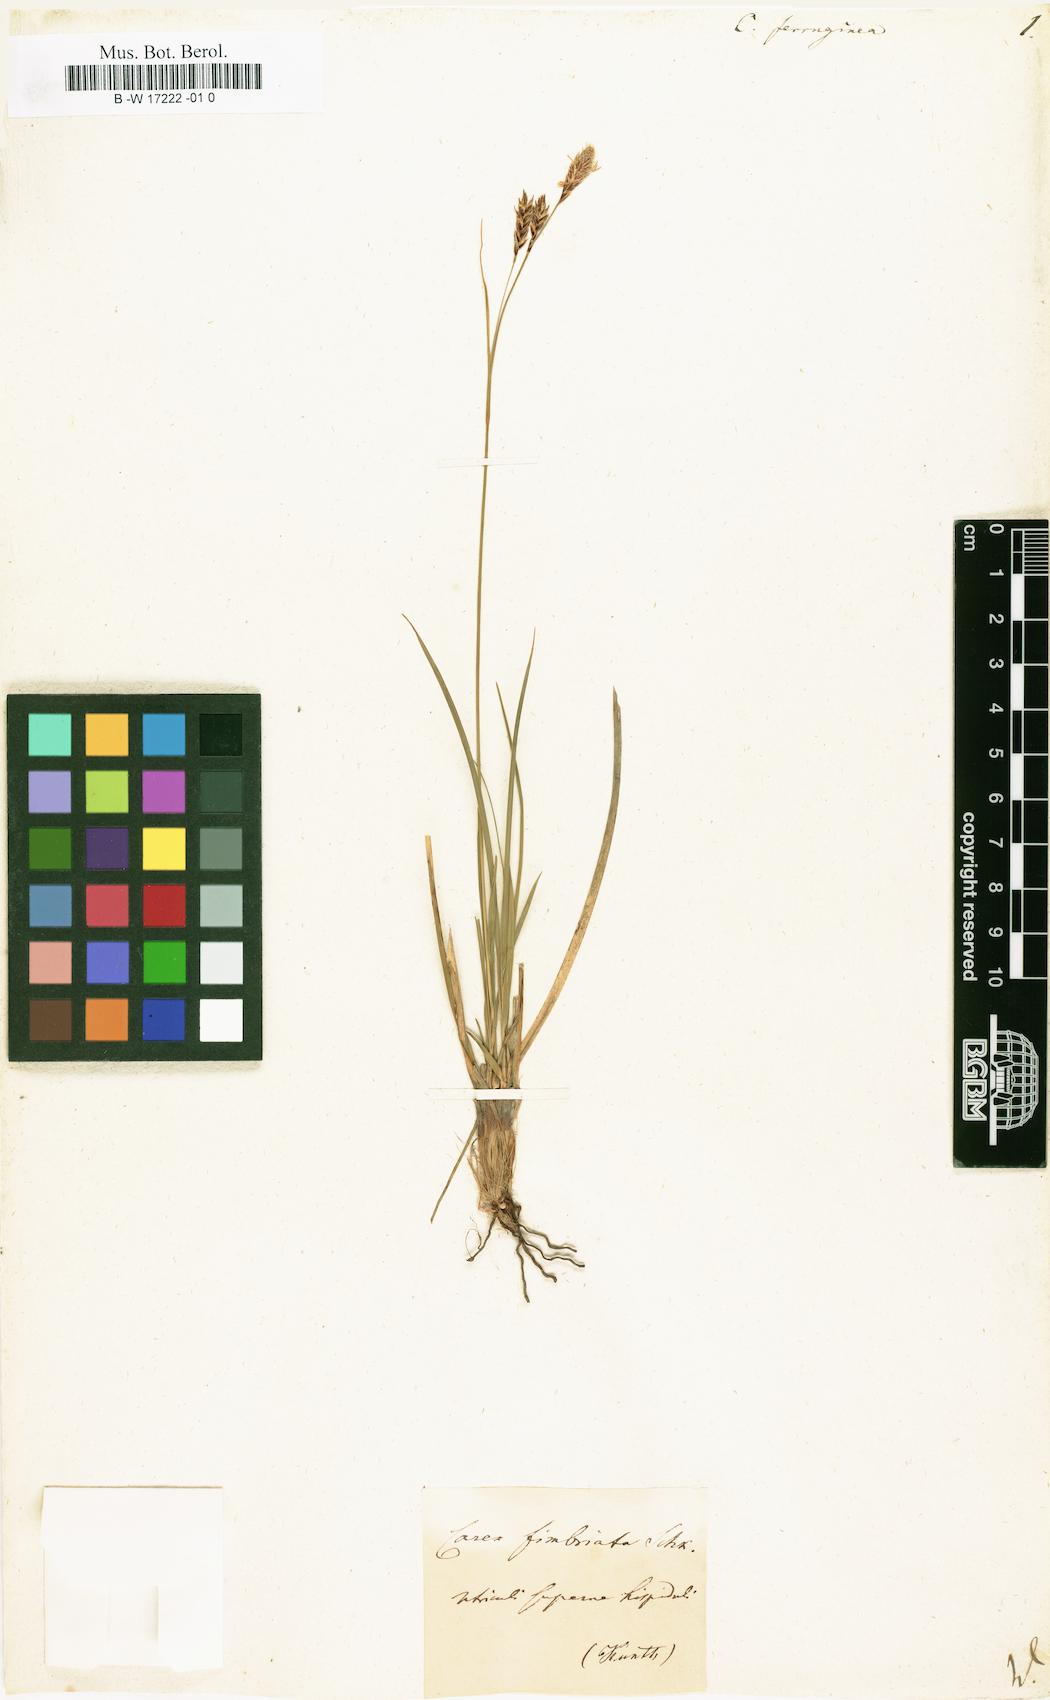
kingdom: Plantae
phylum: Tracheophyta
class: Liliopsida
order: Poales
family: Cyperaceae
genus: Carex
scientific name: Carex ferruginea
